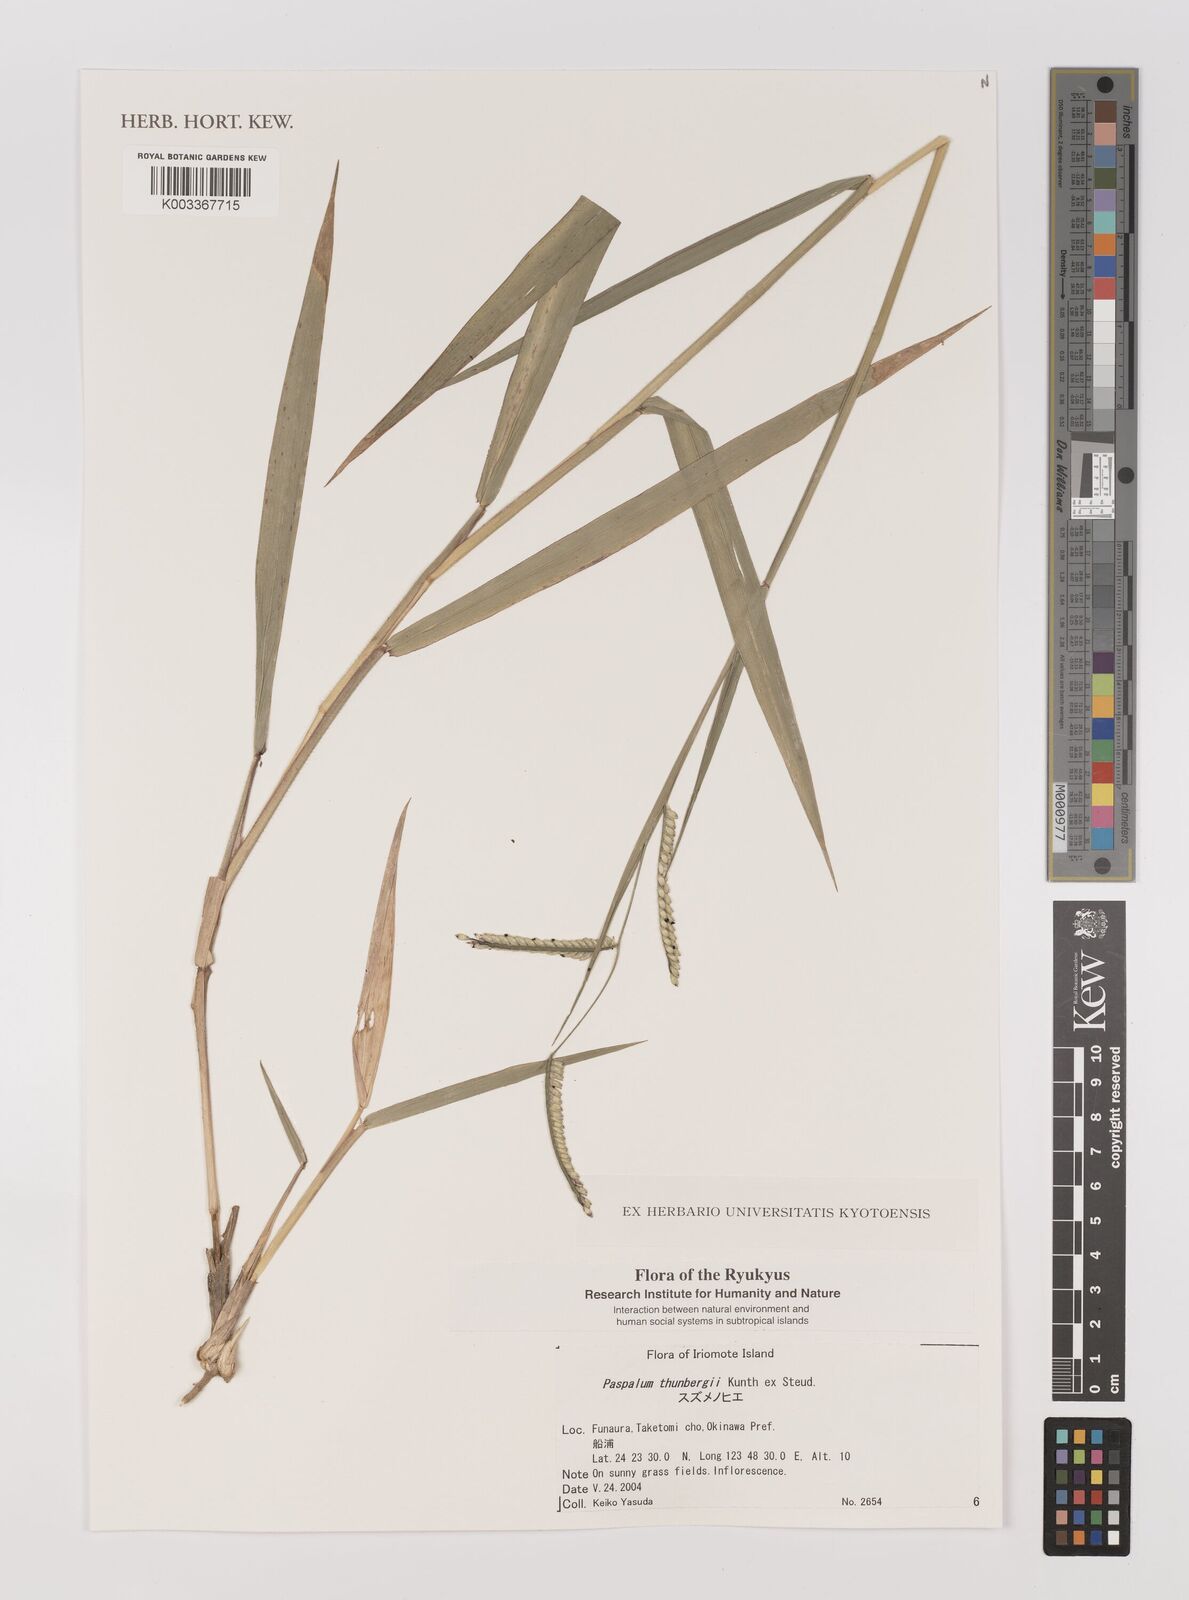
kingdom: Plantae
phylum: Tracheophyta
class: Liliopsida
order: Poales
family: Poaceae
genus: Panicum
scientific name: Panicum
